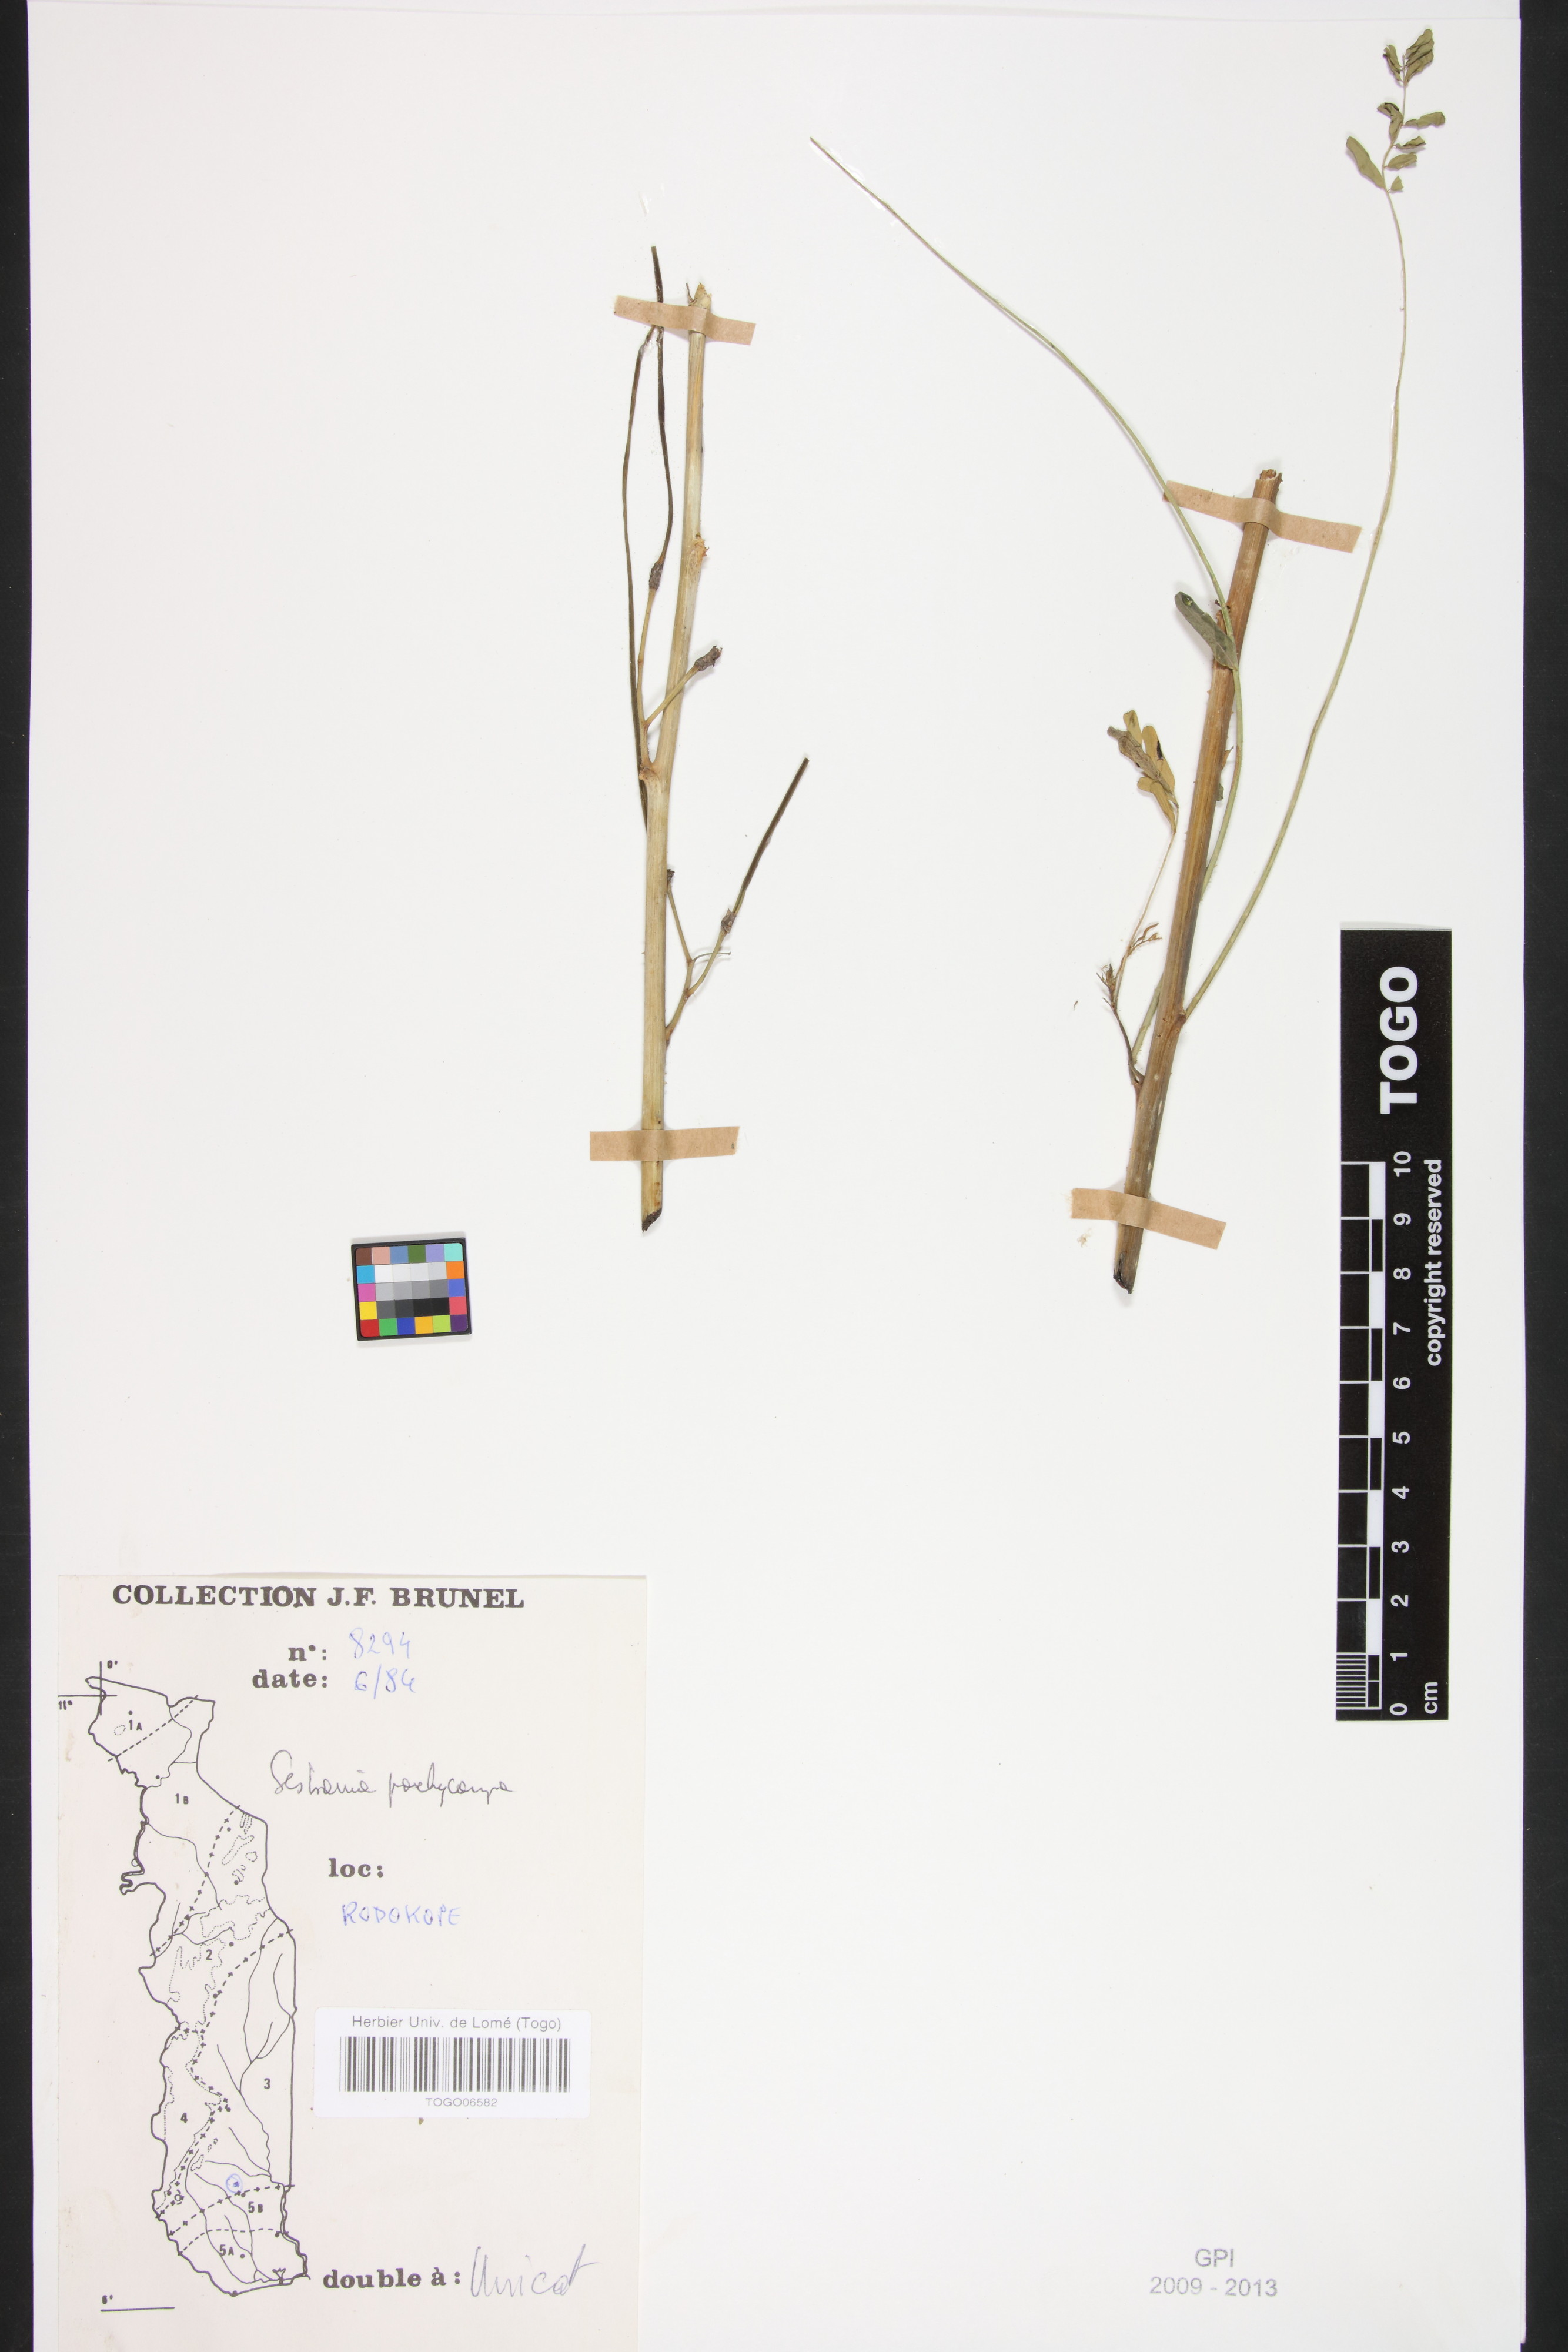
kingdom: Plantae
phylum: Tracheophyta
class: Magnoliopsida
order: Fabales
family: Fabaceae
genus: Sesbania
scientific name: Sesbania pachycarpa
